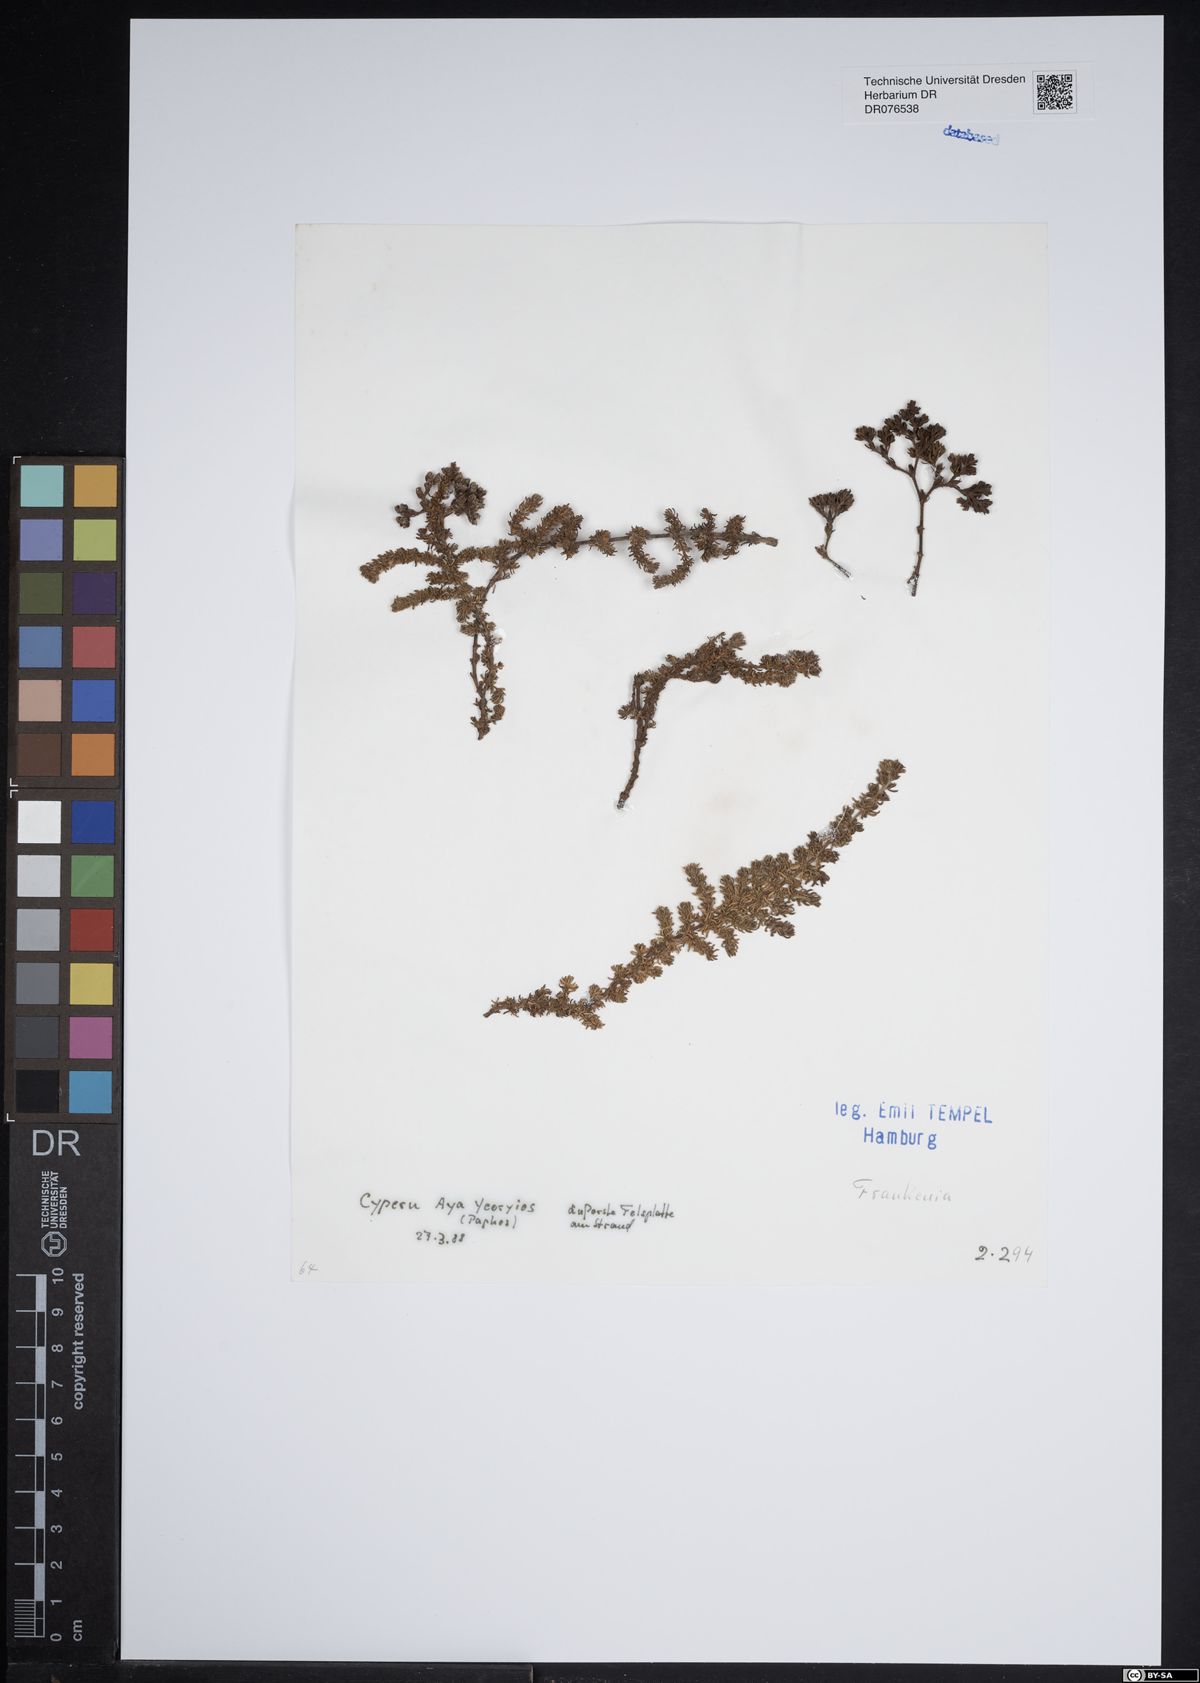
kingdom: Plantae
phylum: Tracheophyta
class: Magnoliopsida
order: Caryophyllales
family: Frankeniaceae
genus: Frankenia
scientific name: Frankenia
